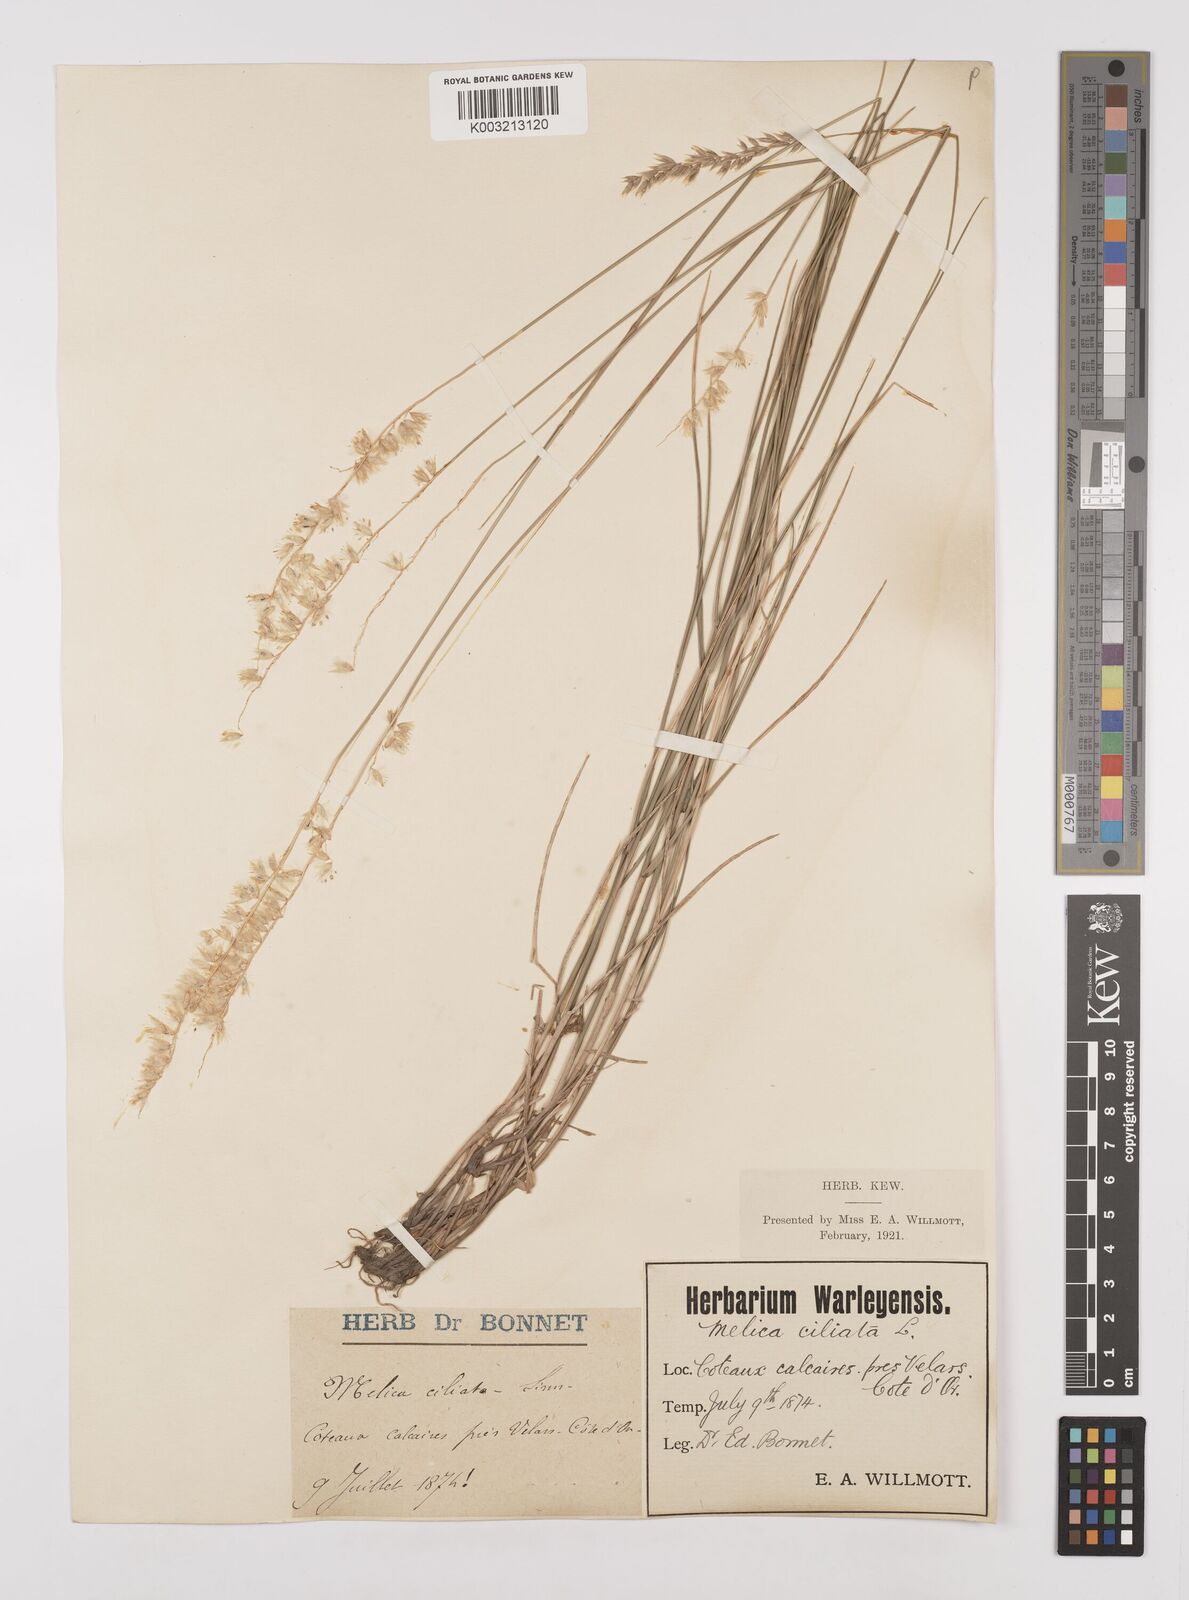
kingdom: Plantae
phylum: Tracheophyta
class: Liliopsida
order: Poales
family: Poaceae
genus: Melica
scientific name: Melica ciliata
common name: Hairy melicgrass
